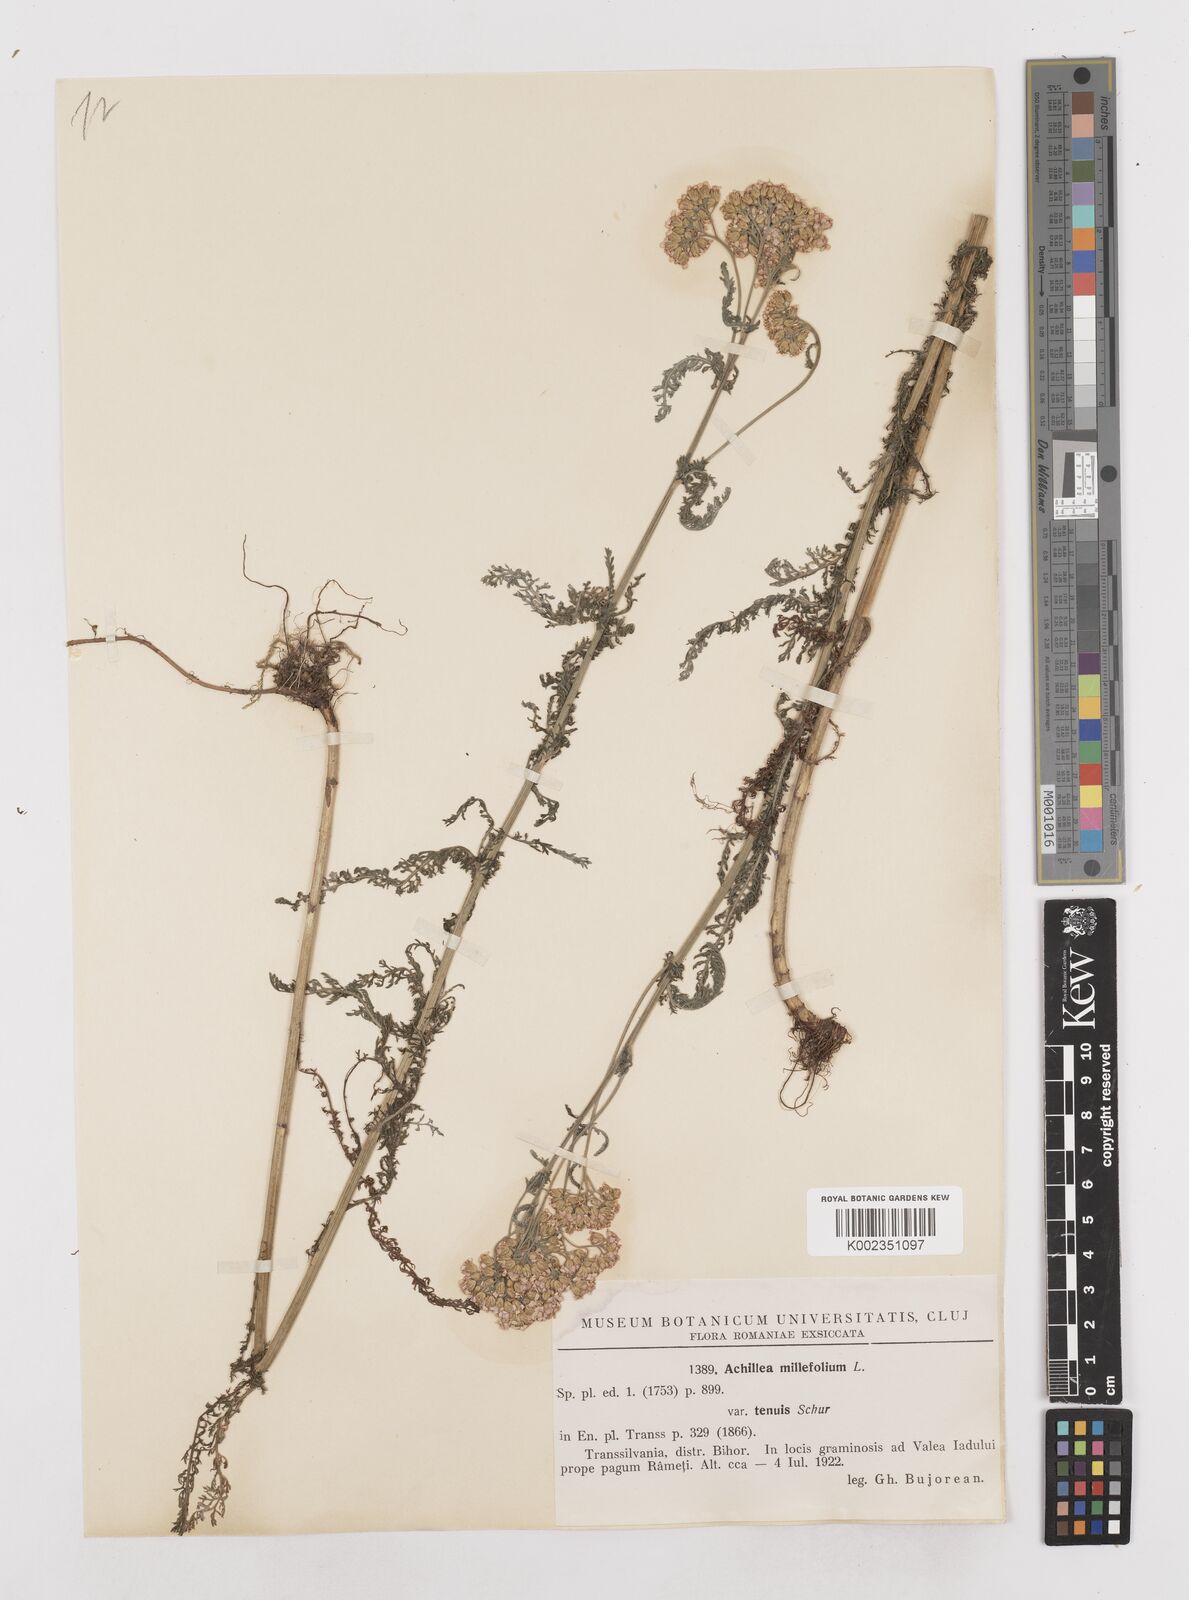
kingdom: Plantae
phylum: Tracheophyta
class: Magnoliopsida
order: Asterales
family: Asteraceae
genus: Achillea
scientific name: Achillea millefolium
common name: Yarrow
